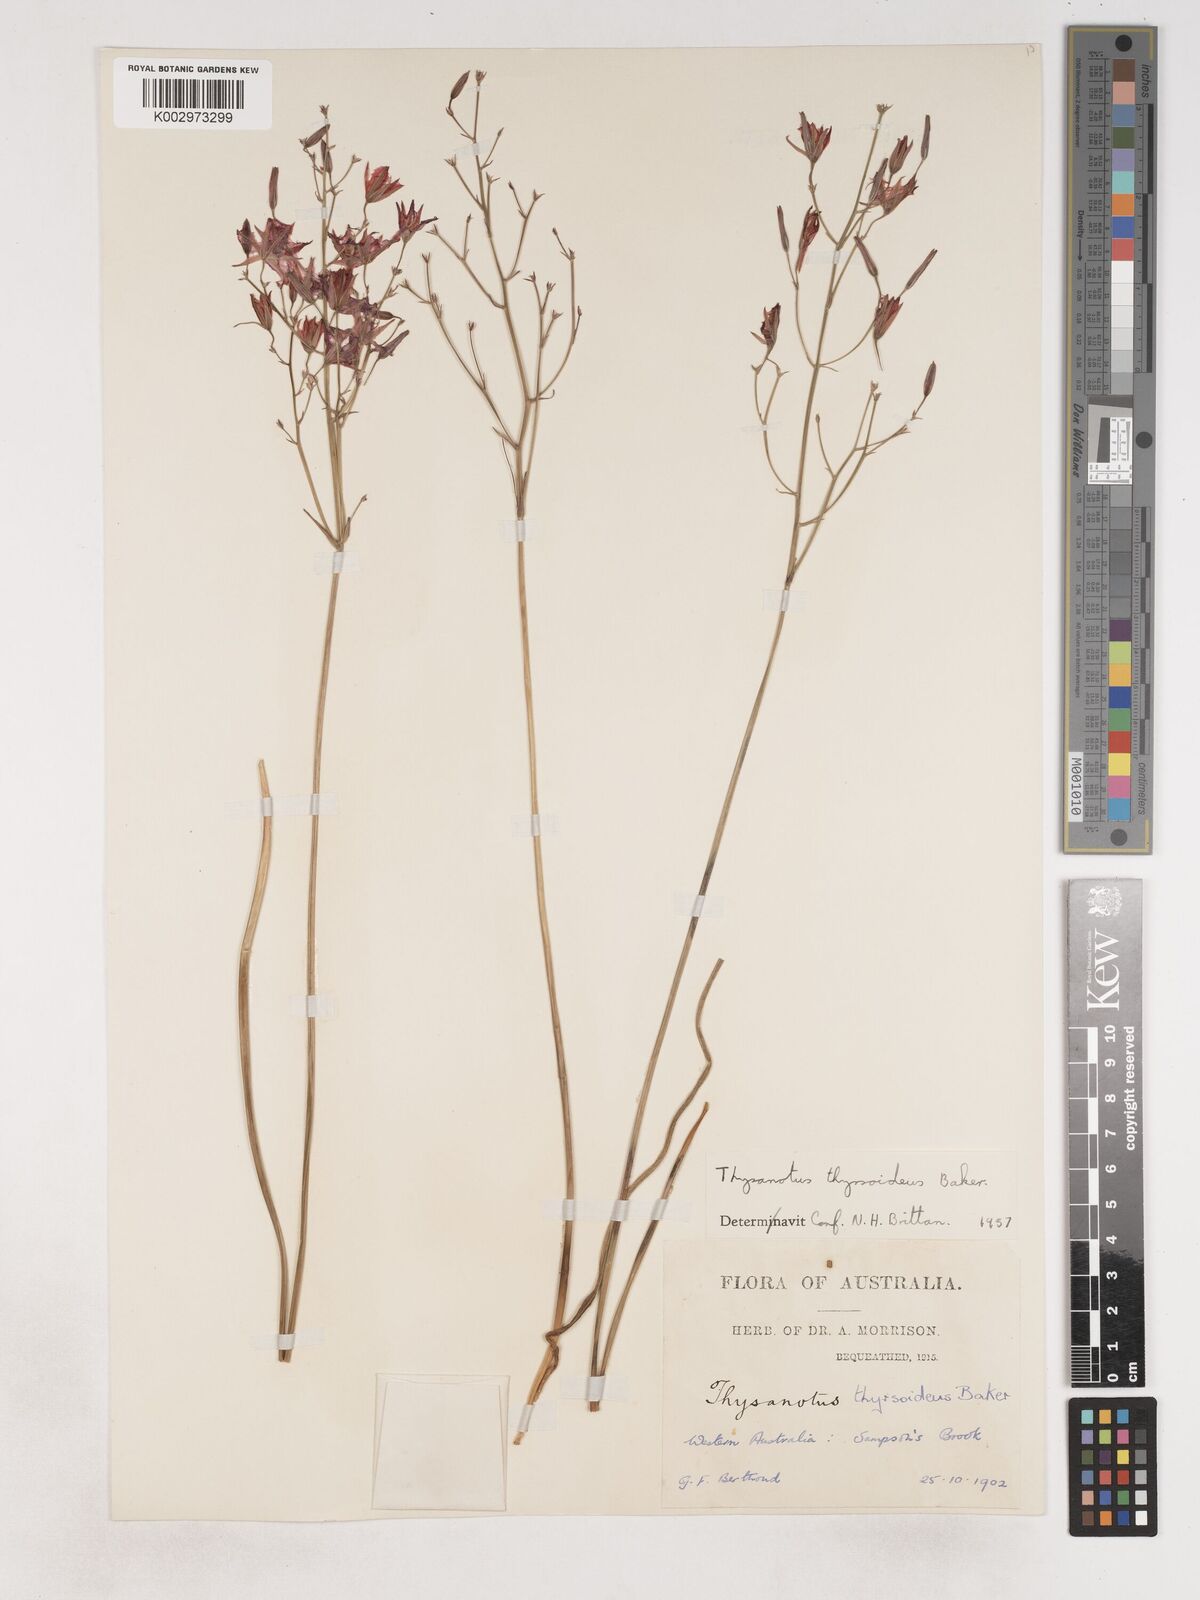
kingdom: Plantae
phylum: Tracheophyta
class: Liliopsida
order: Asparagales
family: Asparagaceae
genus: Thysanotus
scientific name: Thysanotus thyrsoideus
